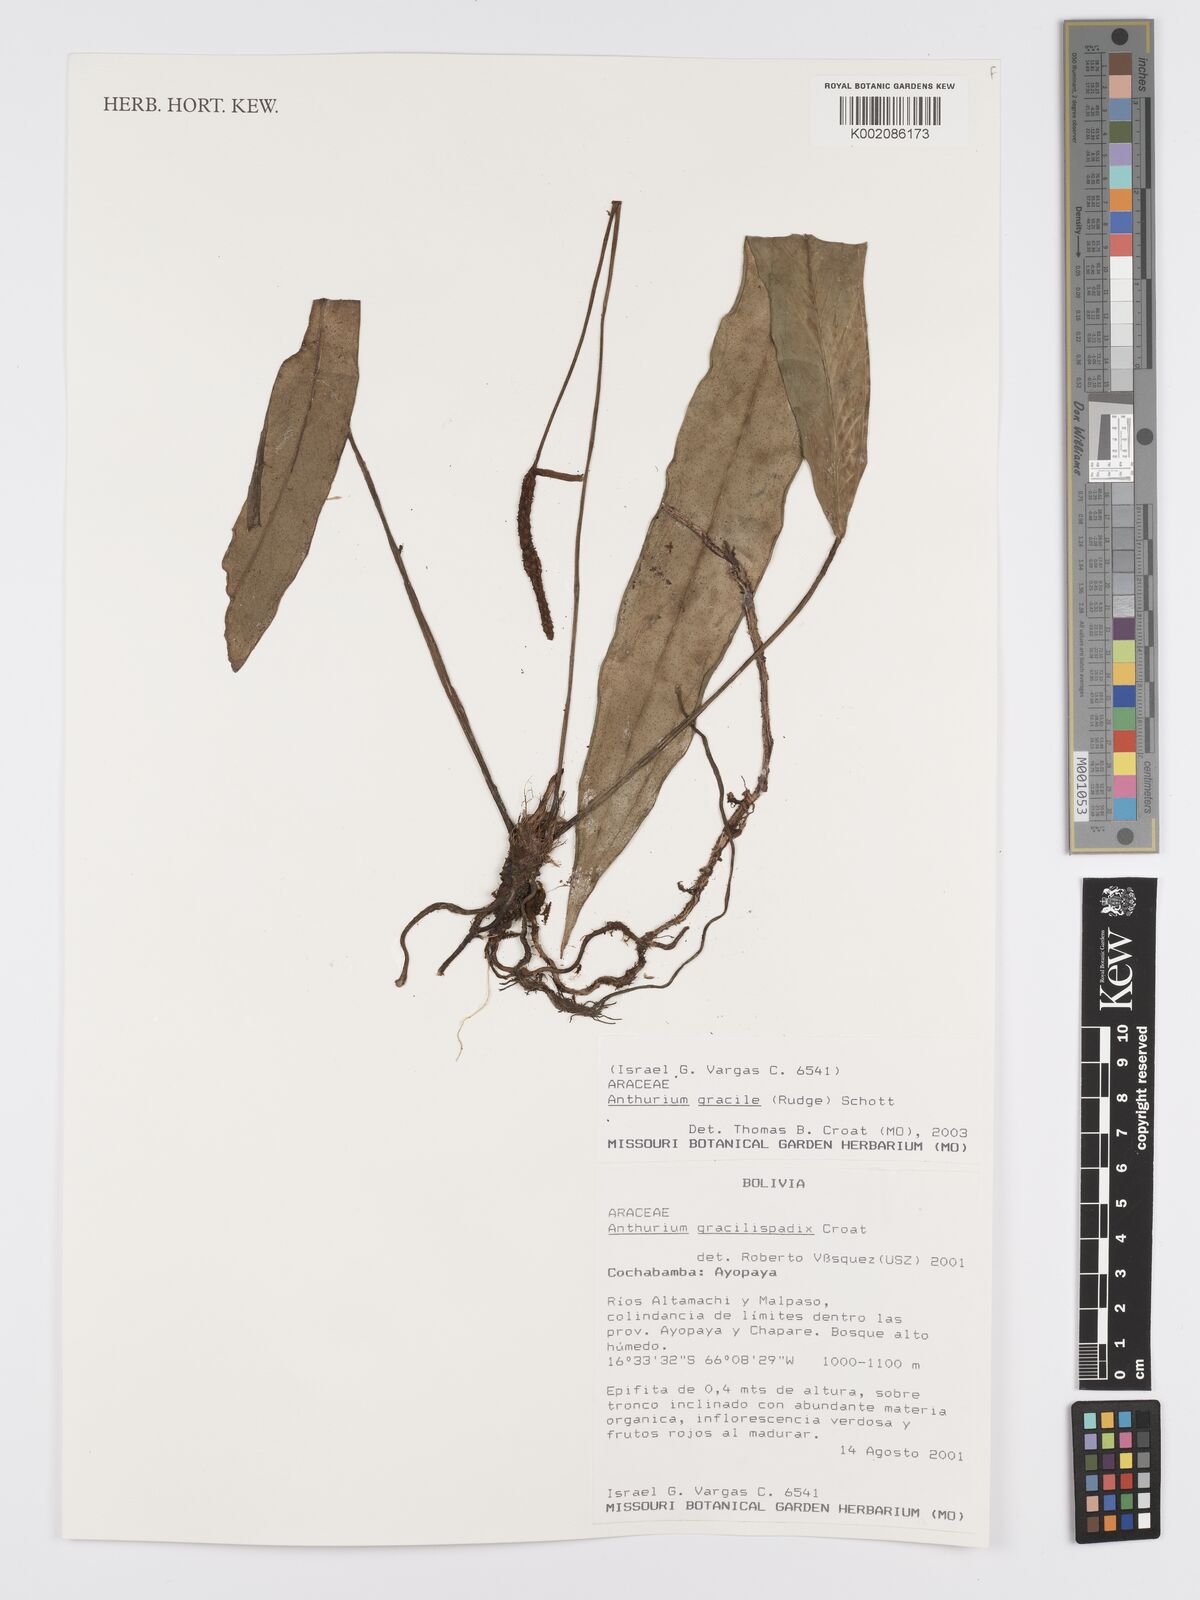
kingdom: Plantae
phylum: Tracheophyta
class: Liliopsida
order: Alismatales
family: Araceae
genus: Anthurium
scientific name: Anthurium gracile
